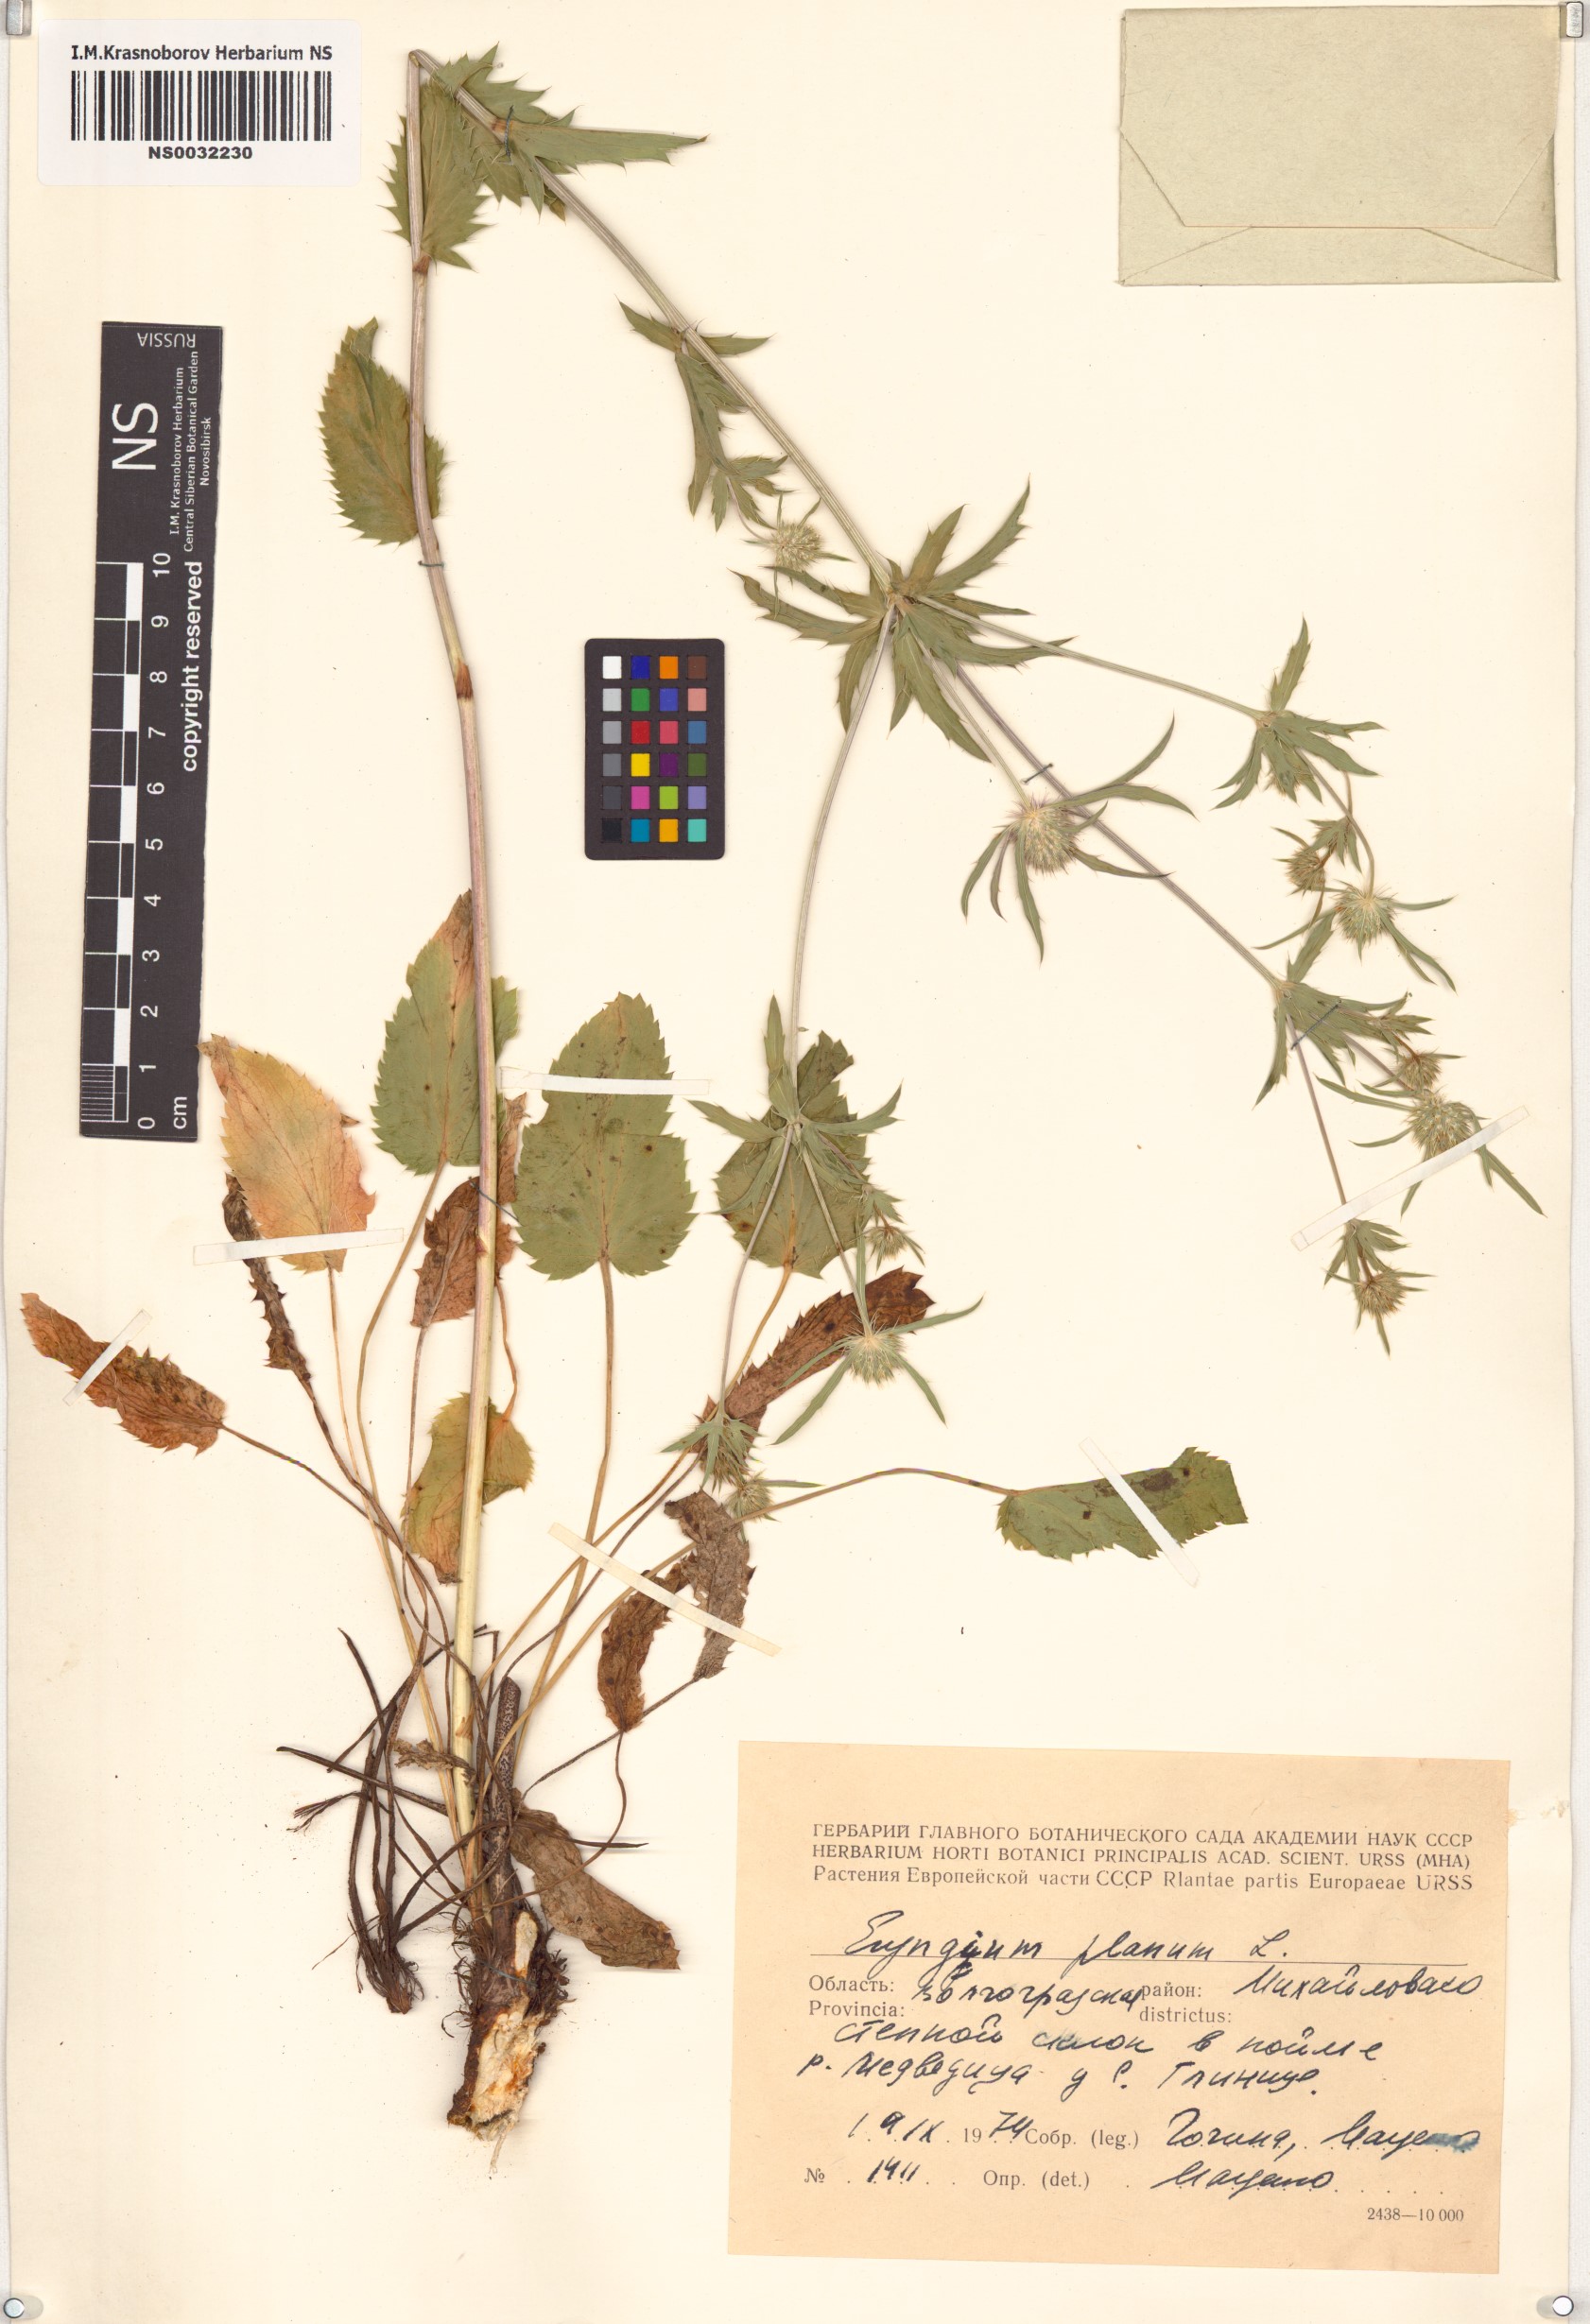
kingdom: Plantae
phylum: Tracheophyta
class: Magnoliopsida
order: Apiales
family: Apiaceae
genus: Eryngium
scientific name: Eryngium planum
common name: Blue eryngo
